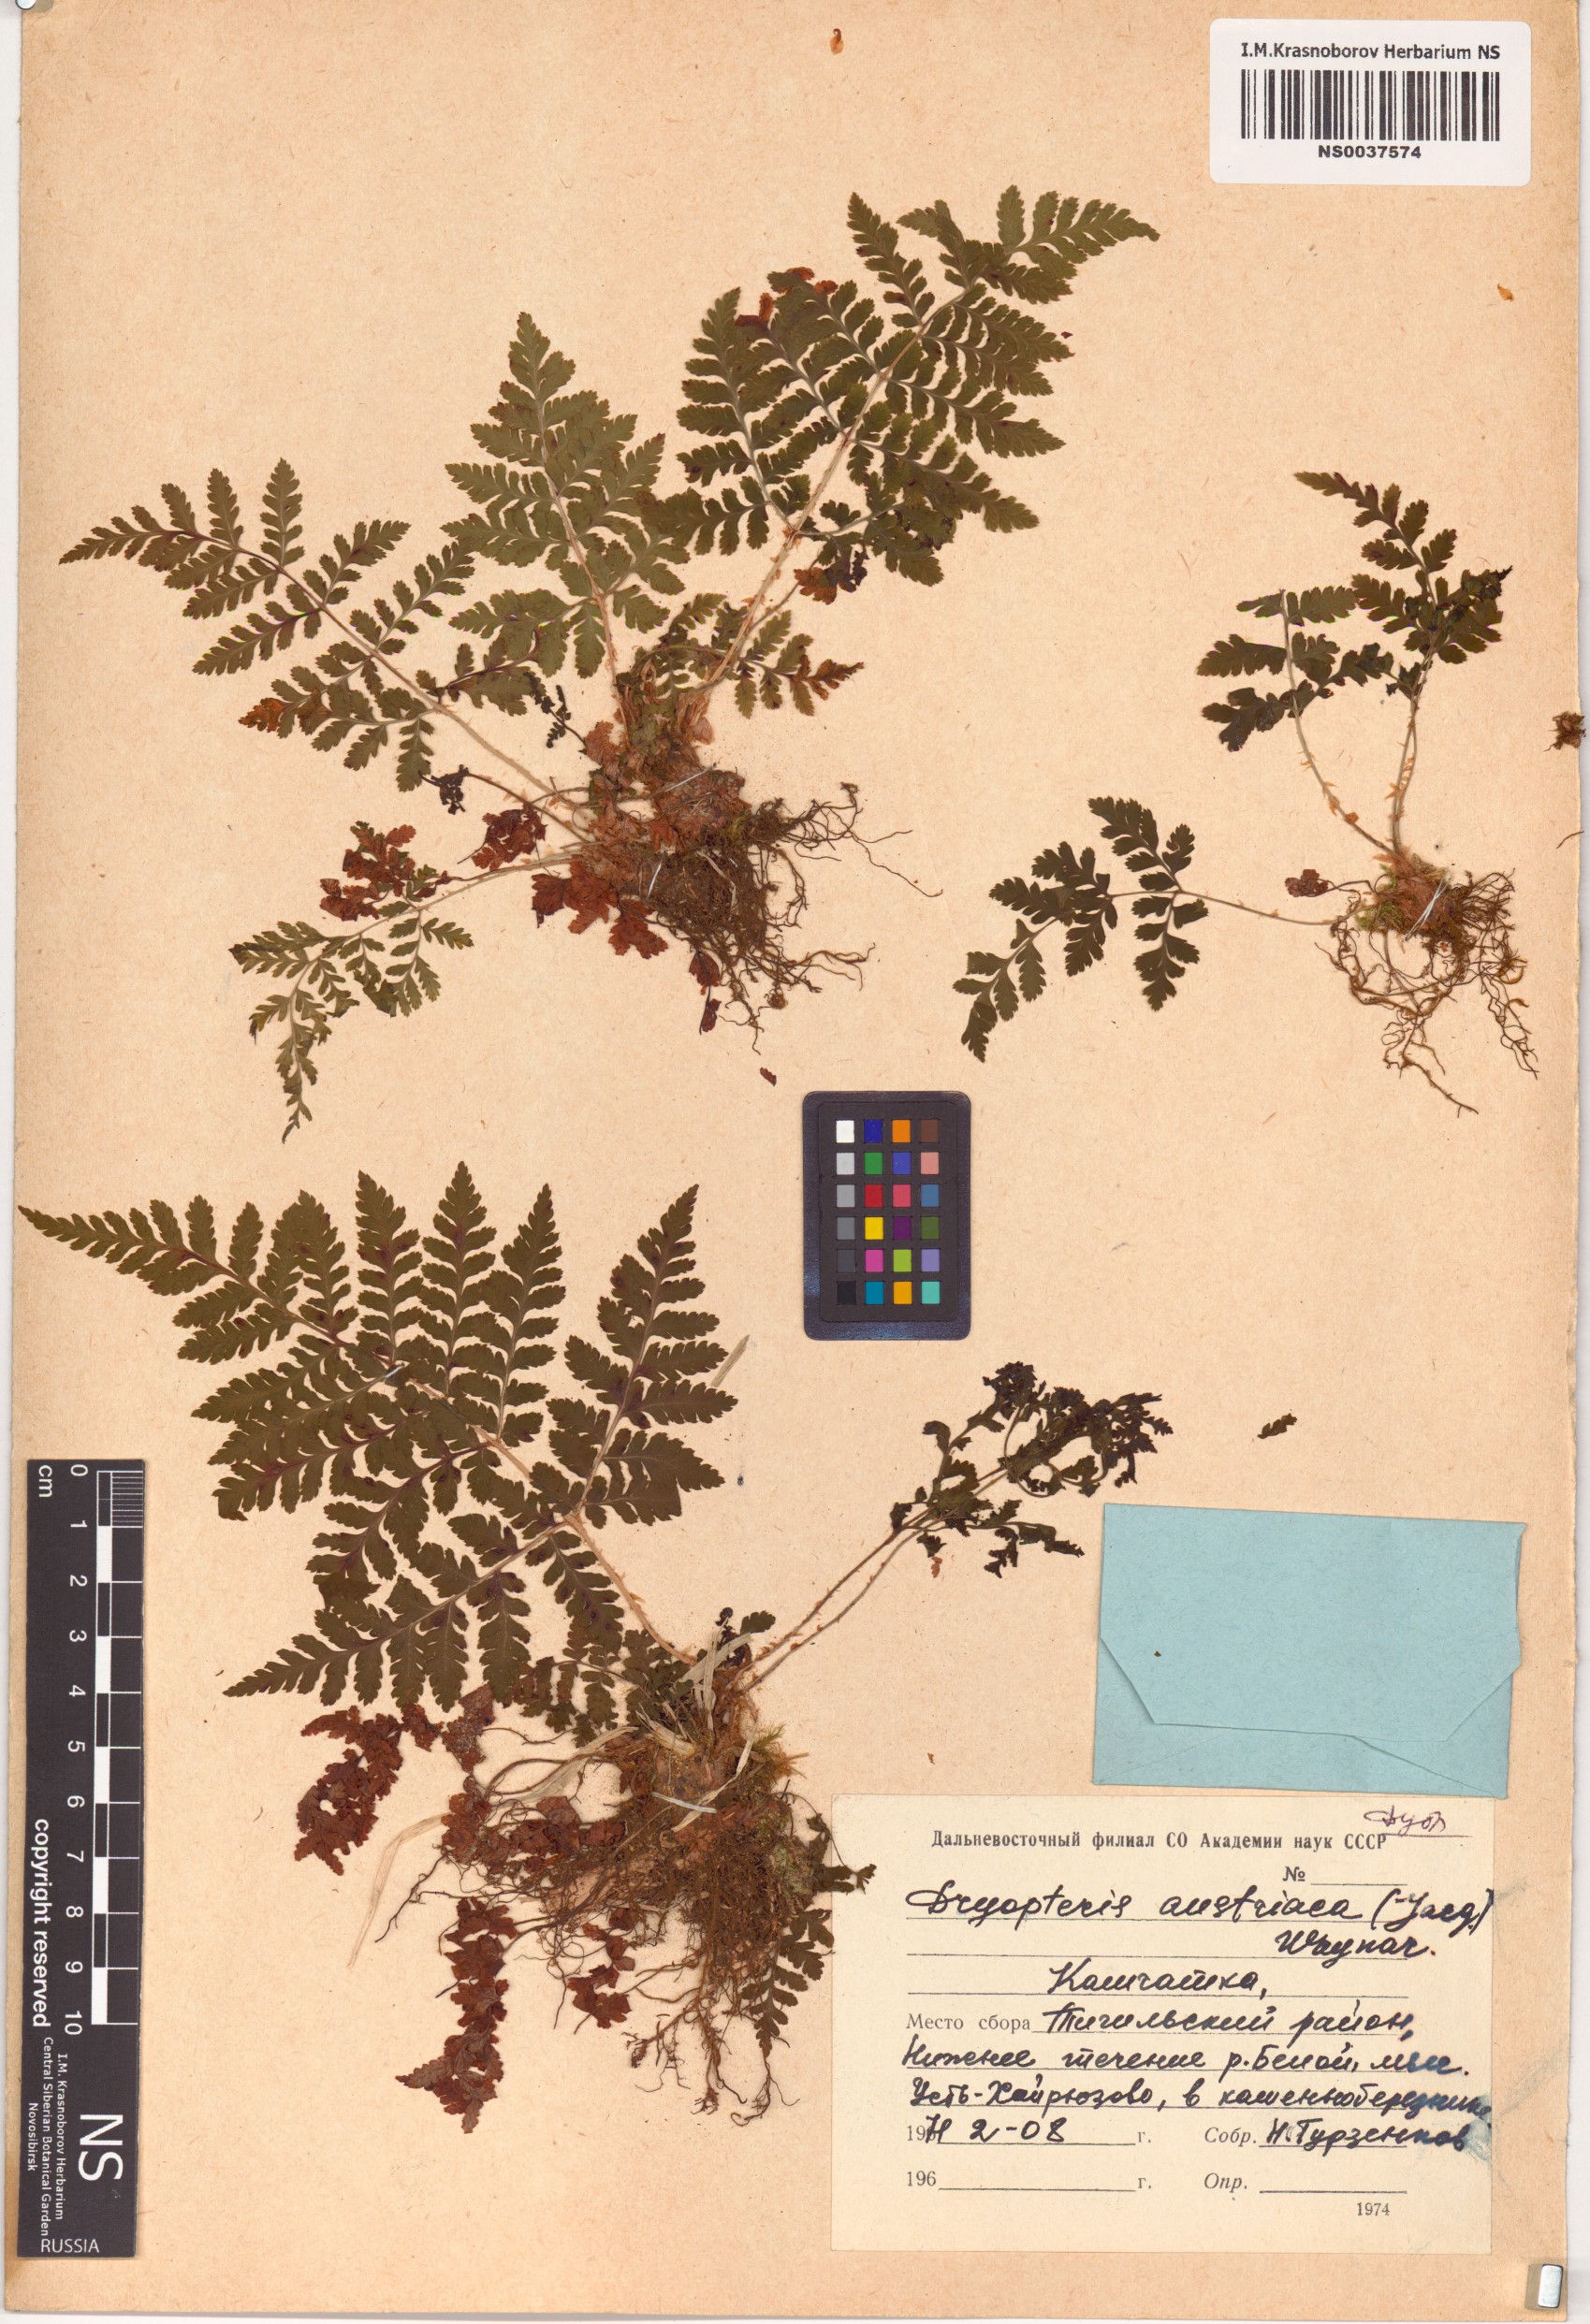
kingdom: Plantae
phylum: Tracheophyta
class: Polypodiopsida
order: Polypodiales
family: Dryopteridaceae
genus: Dryopteris
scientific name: Dryopteris dilatata
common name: Broad buckler-fern
